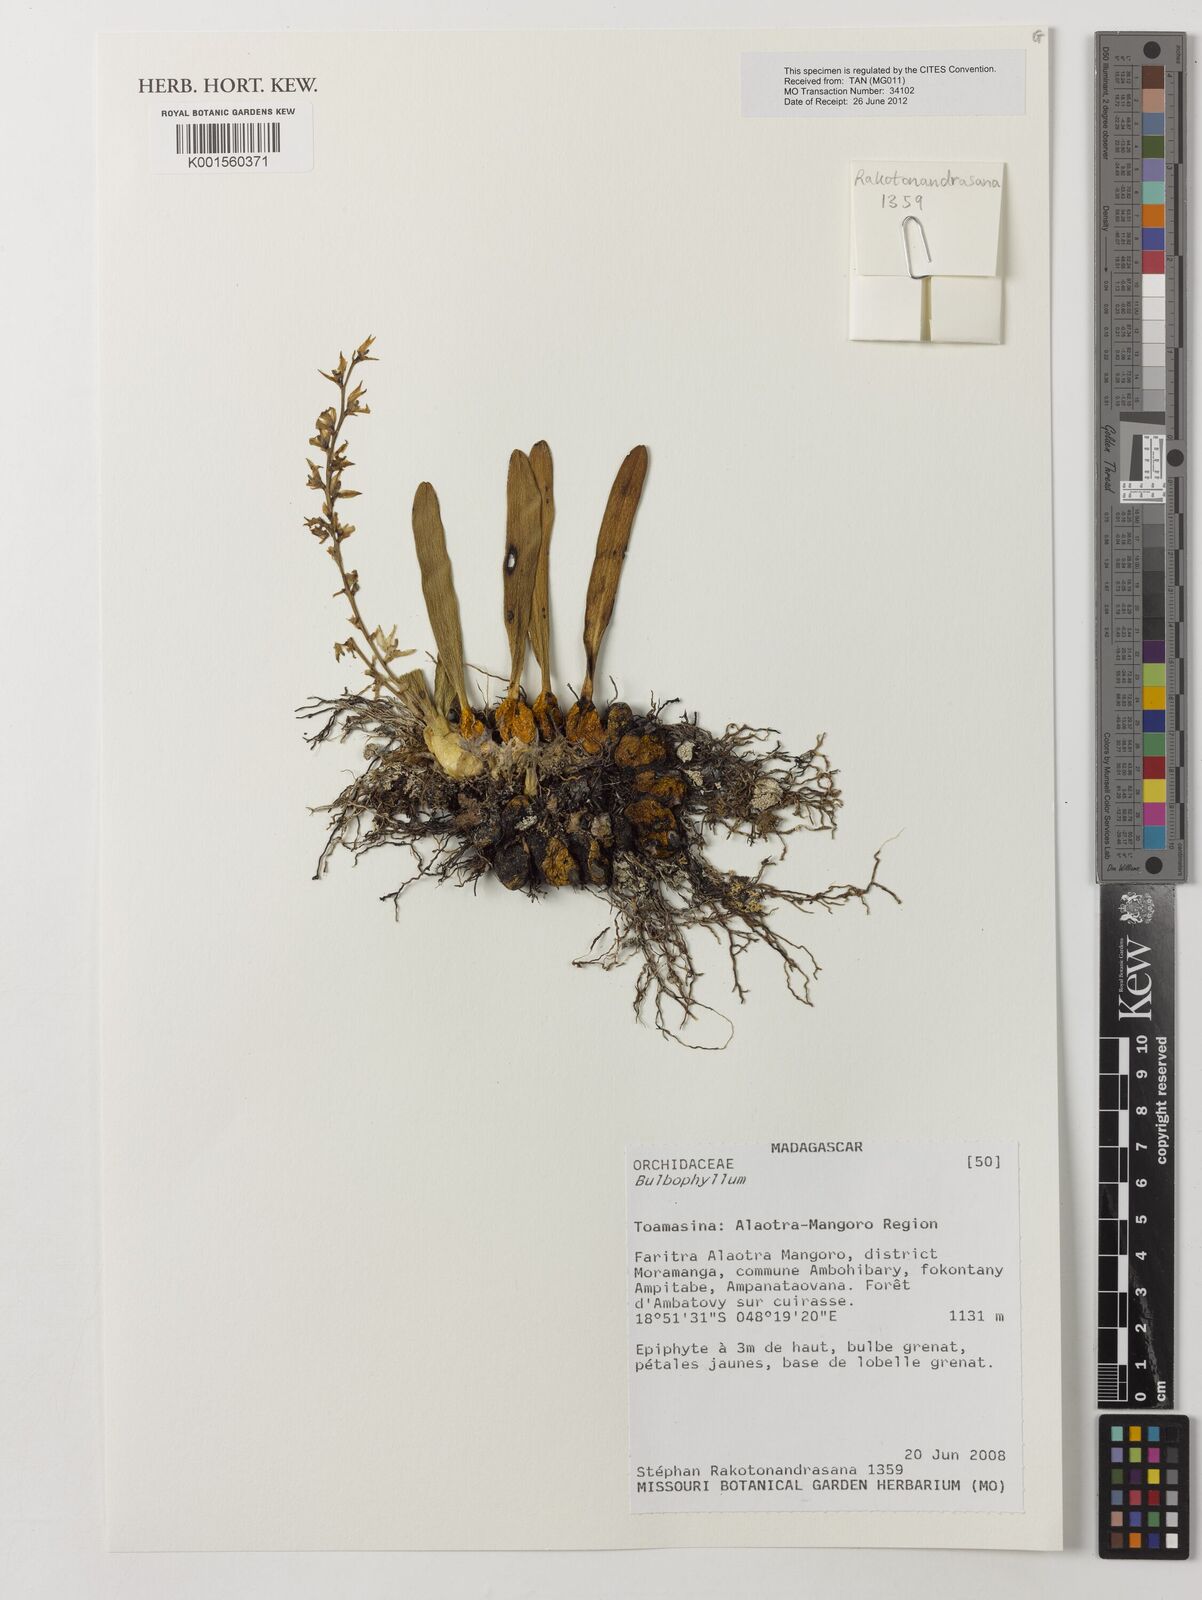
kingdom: Plantae
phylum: Tracheophyta
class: Liliopsida
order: Asparagales
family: Orchidaceae
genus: Bulbophyllum
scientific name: Bulbophyllum
